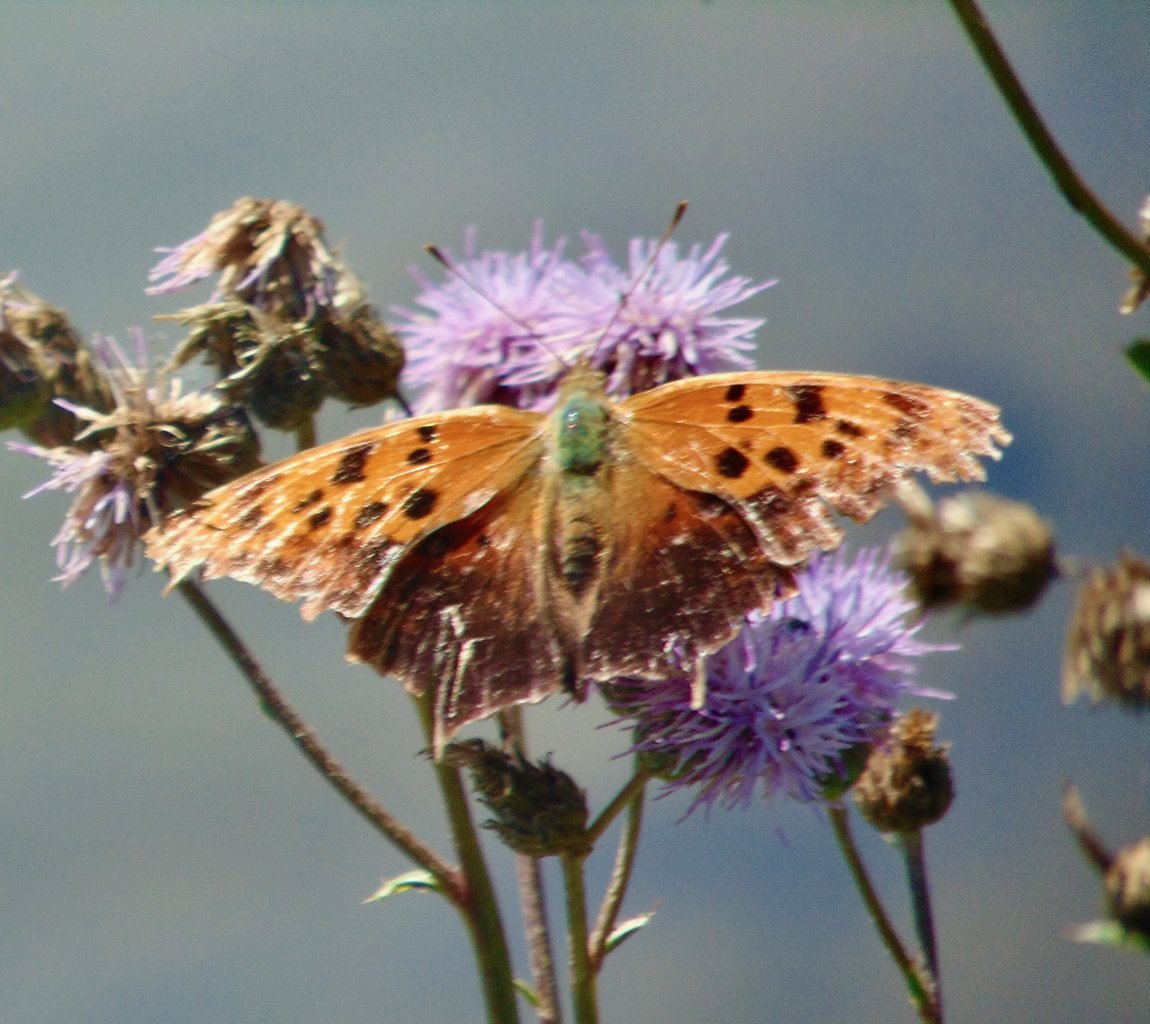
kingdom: Animalia
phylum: Arthropoda
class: Insecta
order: Lepidoptera
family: Nymphalidae
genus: Polygonia
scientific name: Polygonia interrogationis
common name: Question Mark
